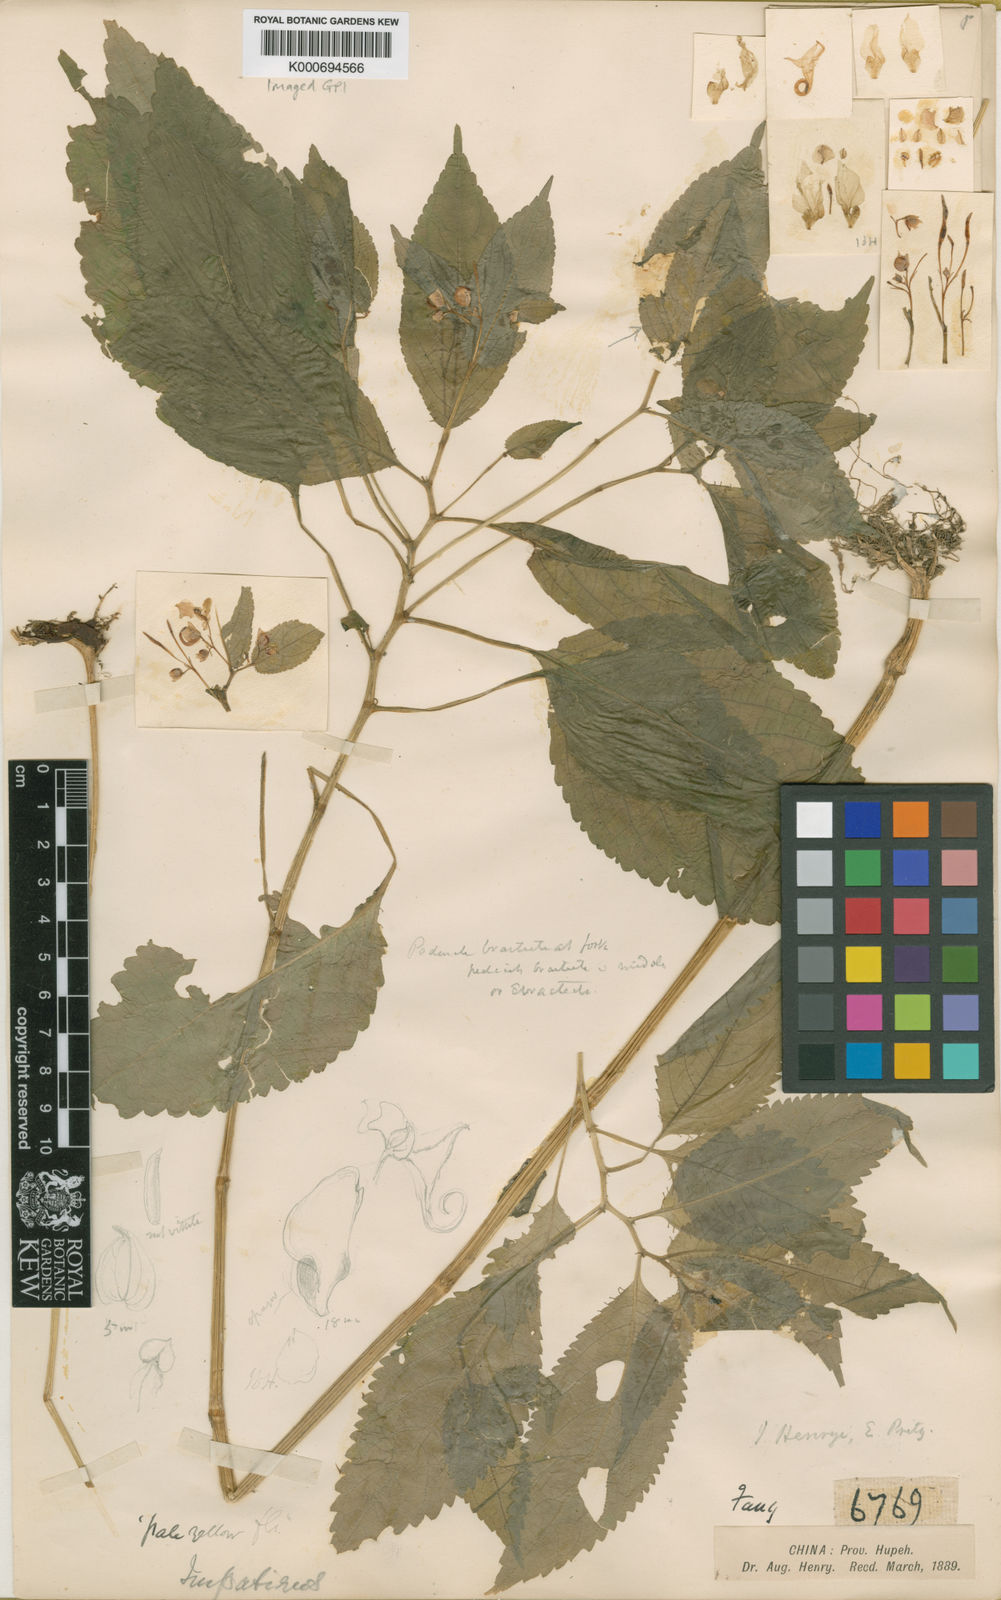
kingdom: Plantae
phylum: Tracheophyta
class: Magnoliopsida
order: Ericales
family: Balsaminaceae
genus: Impatiens
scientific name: Impatiens henryi
